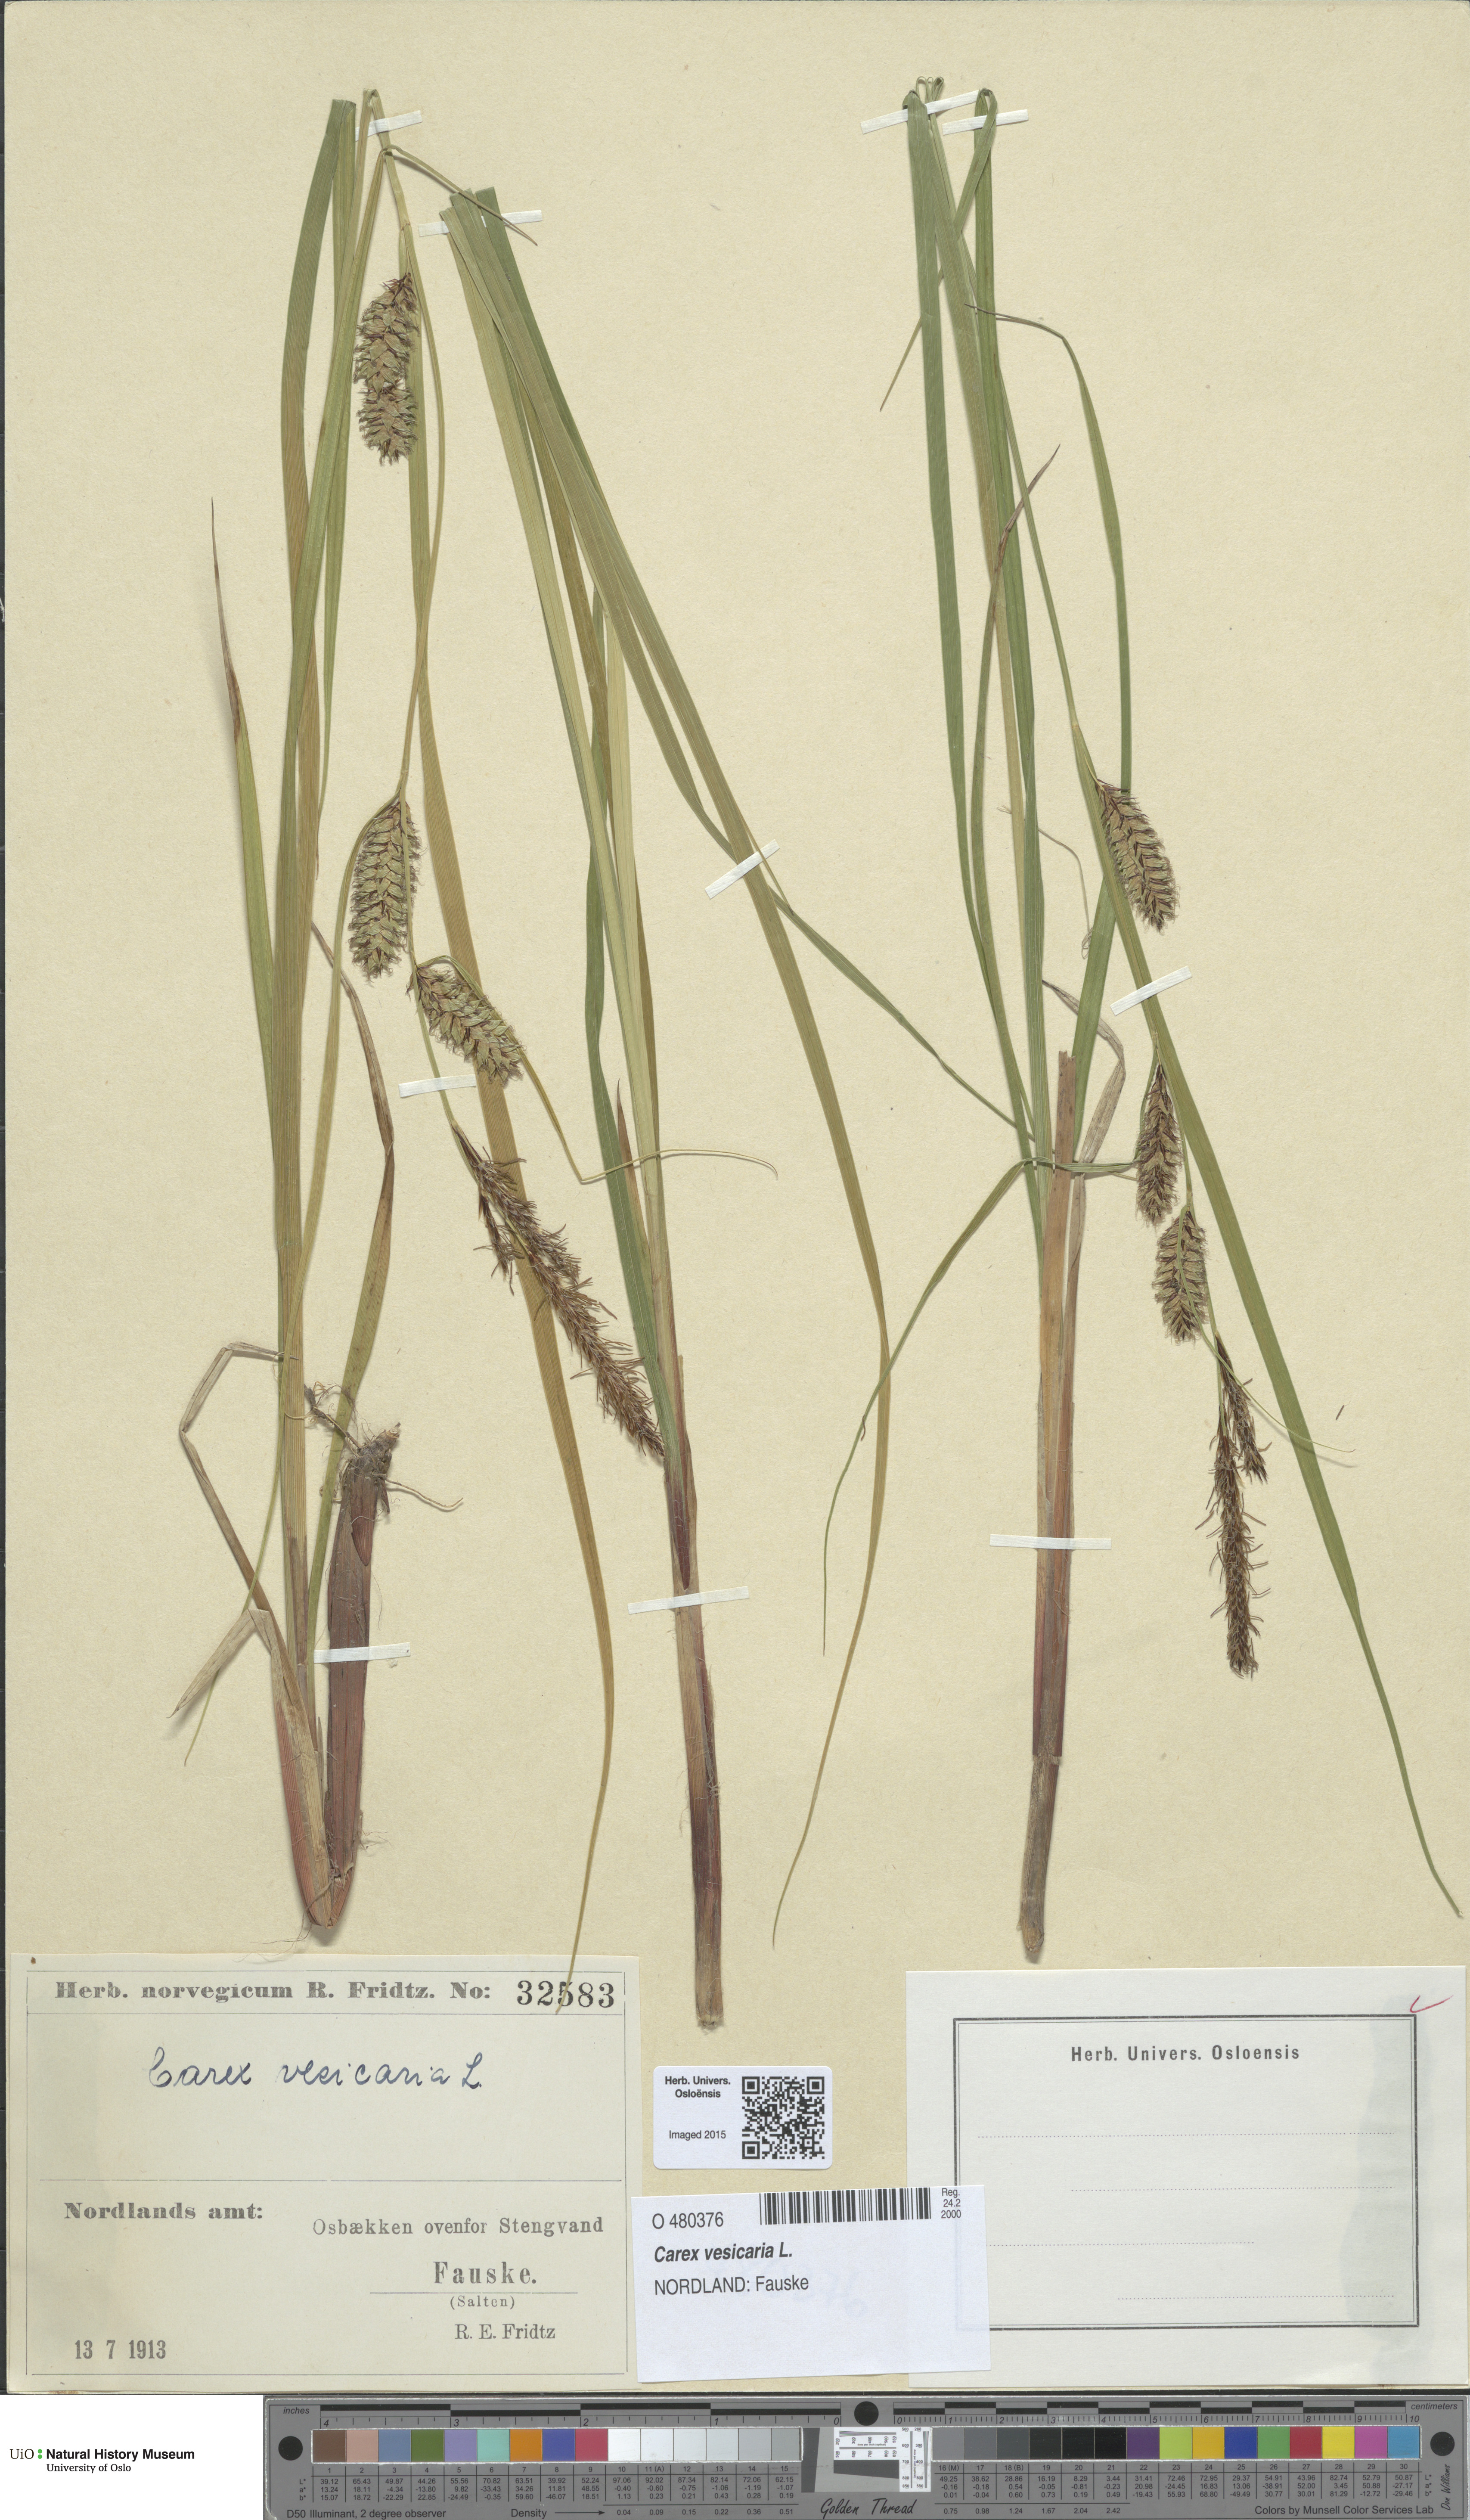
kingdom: Plantae
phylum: Tracheophyta
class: Liliopsida
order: Poales
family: Cyperaceae
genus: Carex
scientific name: Carex vesicaria
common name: Bladder-sedge
